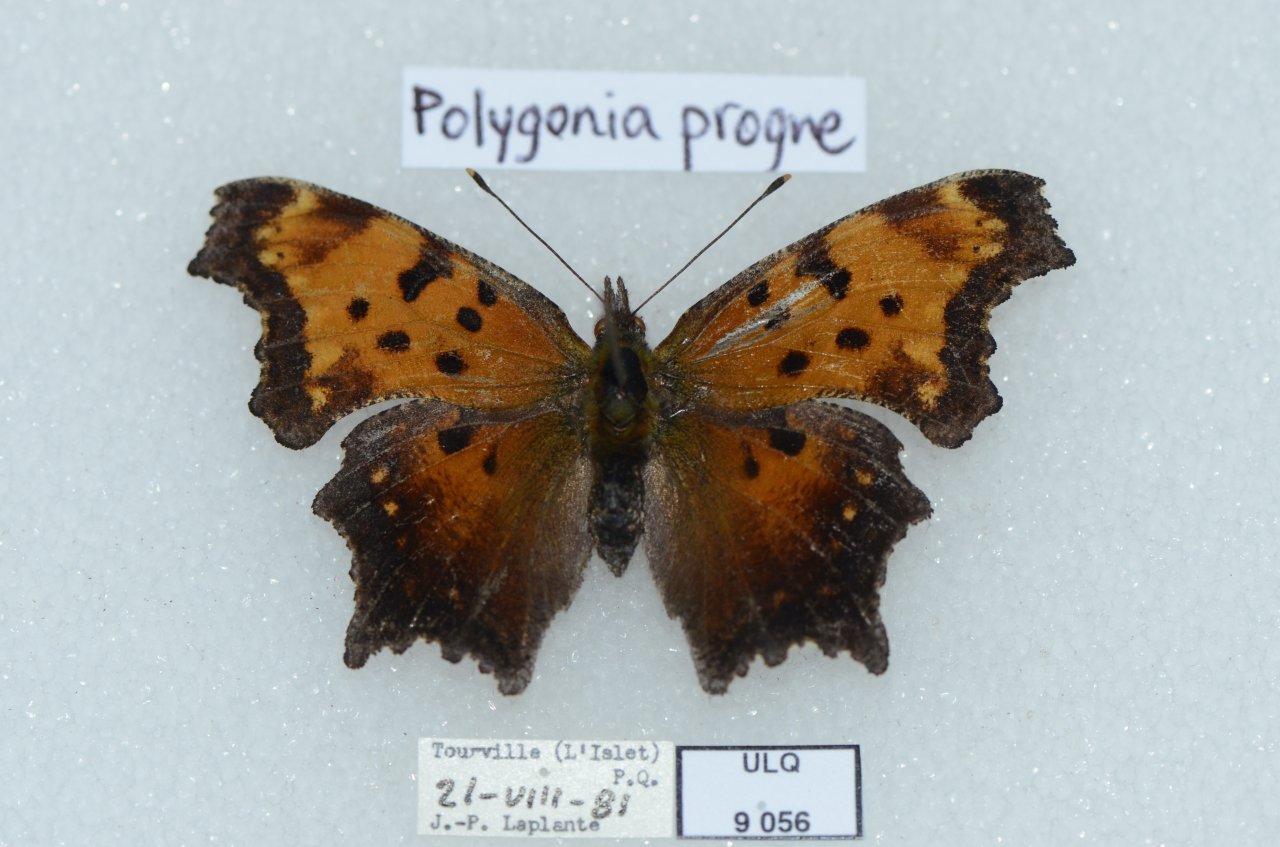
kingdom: Animalia
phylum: Arthropoda
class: Insecta
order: Lepidoptera
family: Nymphalidae
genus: Polygonia
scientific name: Polygonia progne
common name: Gray Comma
